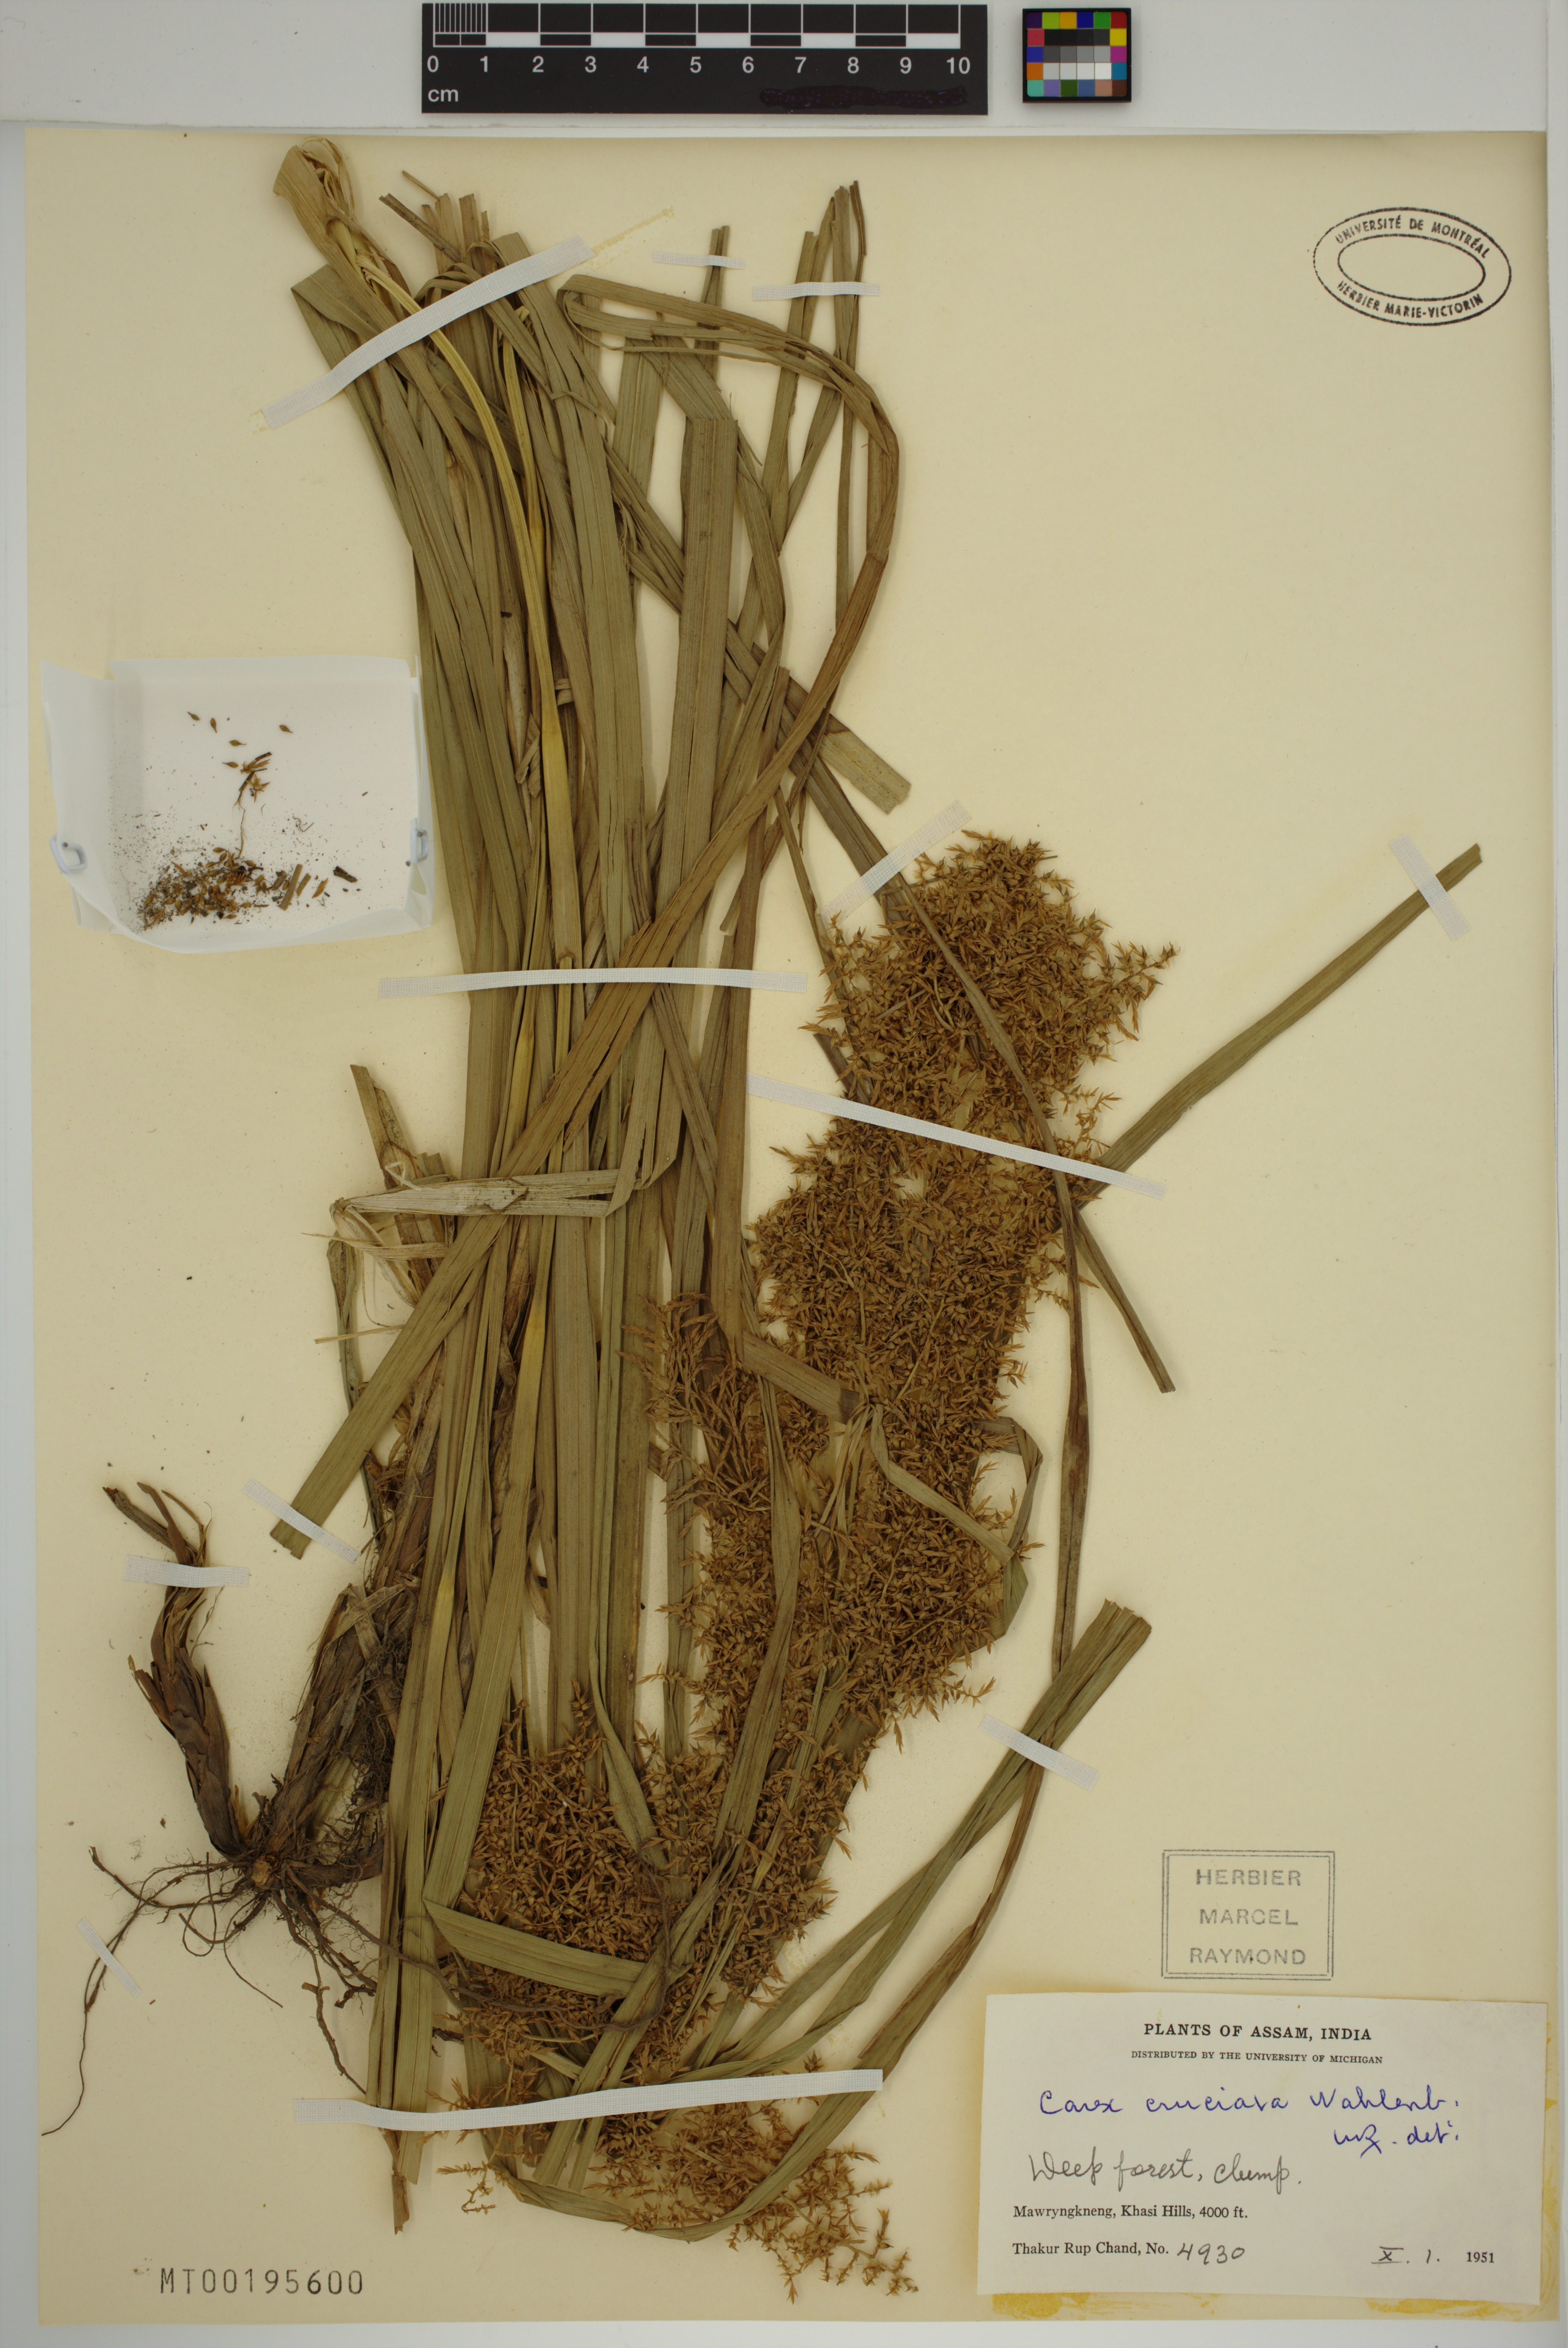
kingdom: Plantae
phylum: Tracheophyta
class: Liliopsida
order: Poales
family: Cyperaceae
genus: Carex
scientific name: Carex cruciata
